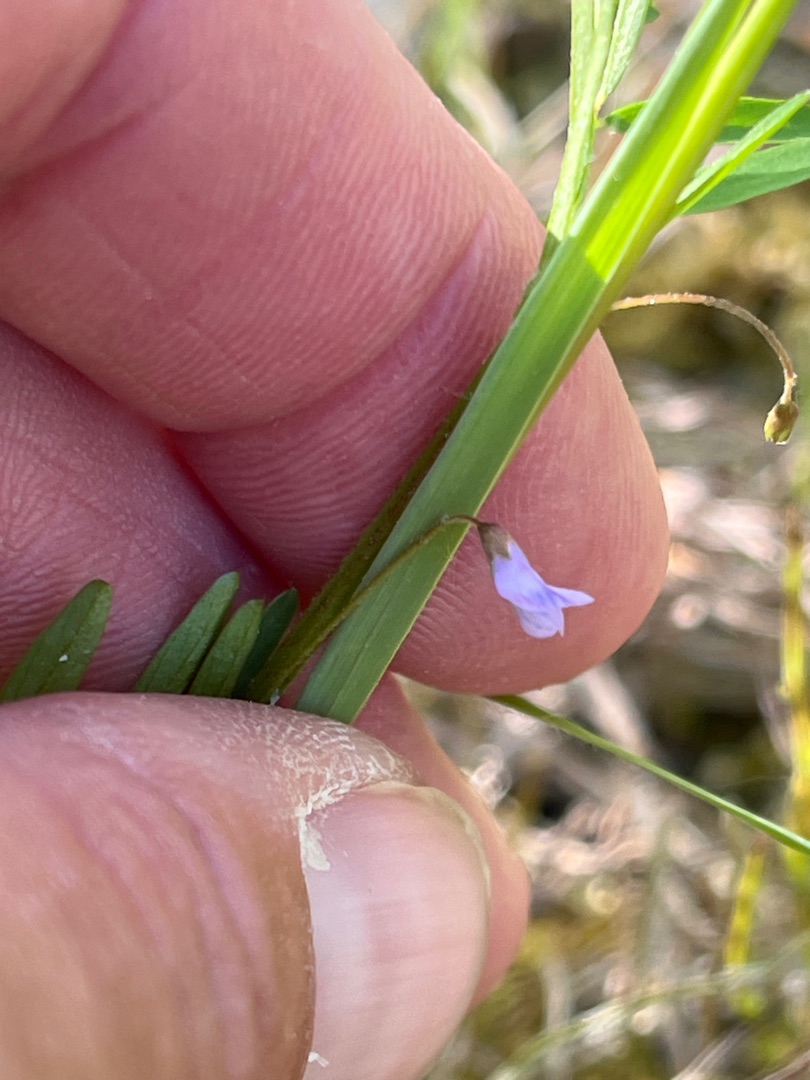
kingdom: Plantae
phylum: Tracheophyta
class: Magnoliopsida
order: Fabales
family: Fabaceae
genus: Vicia
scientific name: Vicia tetrasperma
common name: Tadder-vikke
